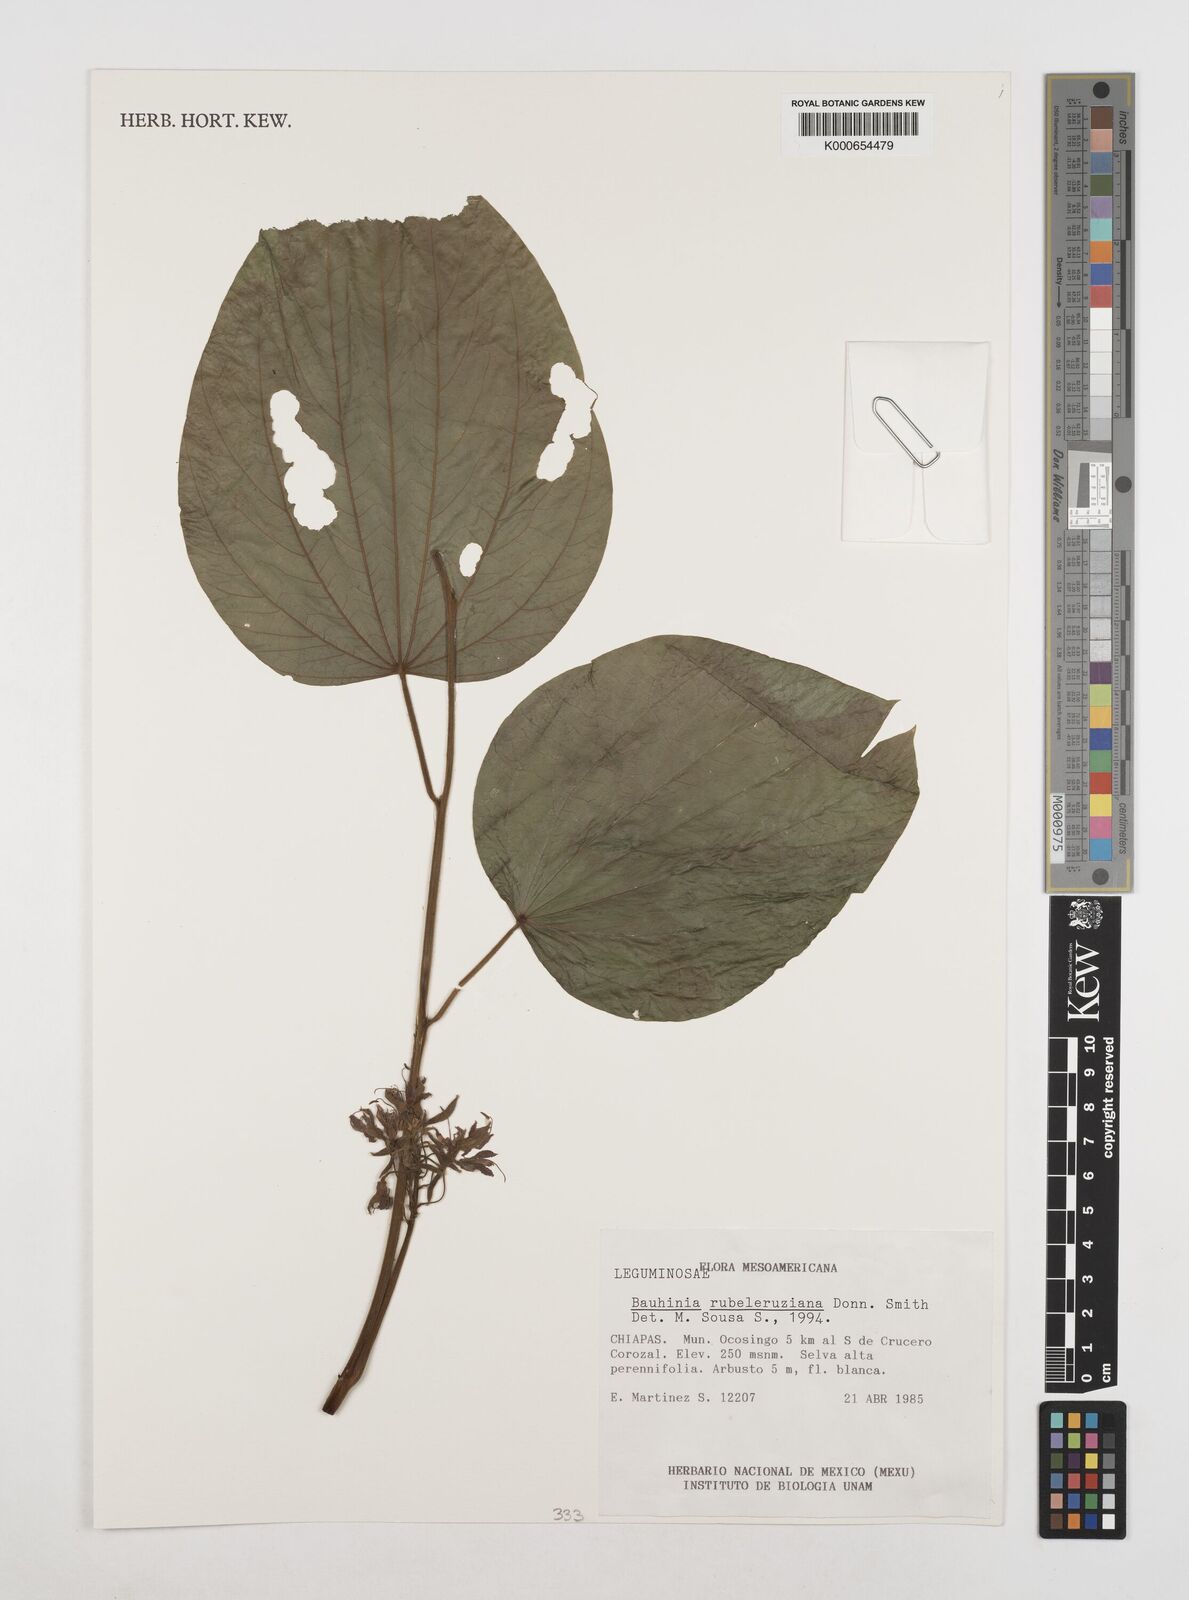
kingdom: Plantae
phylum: Tracheophyta
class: Magnoliopsida
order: Fabales
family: Fabaceae
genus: Bauhinia
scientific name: Bauhinia rubeleruziana
